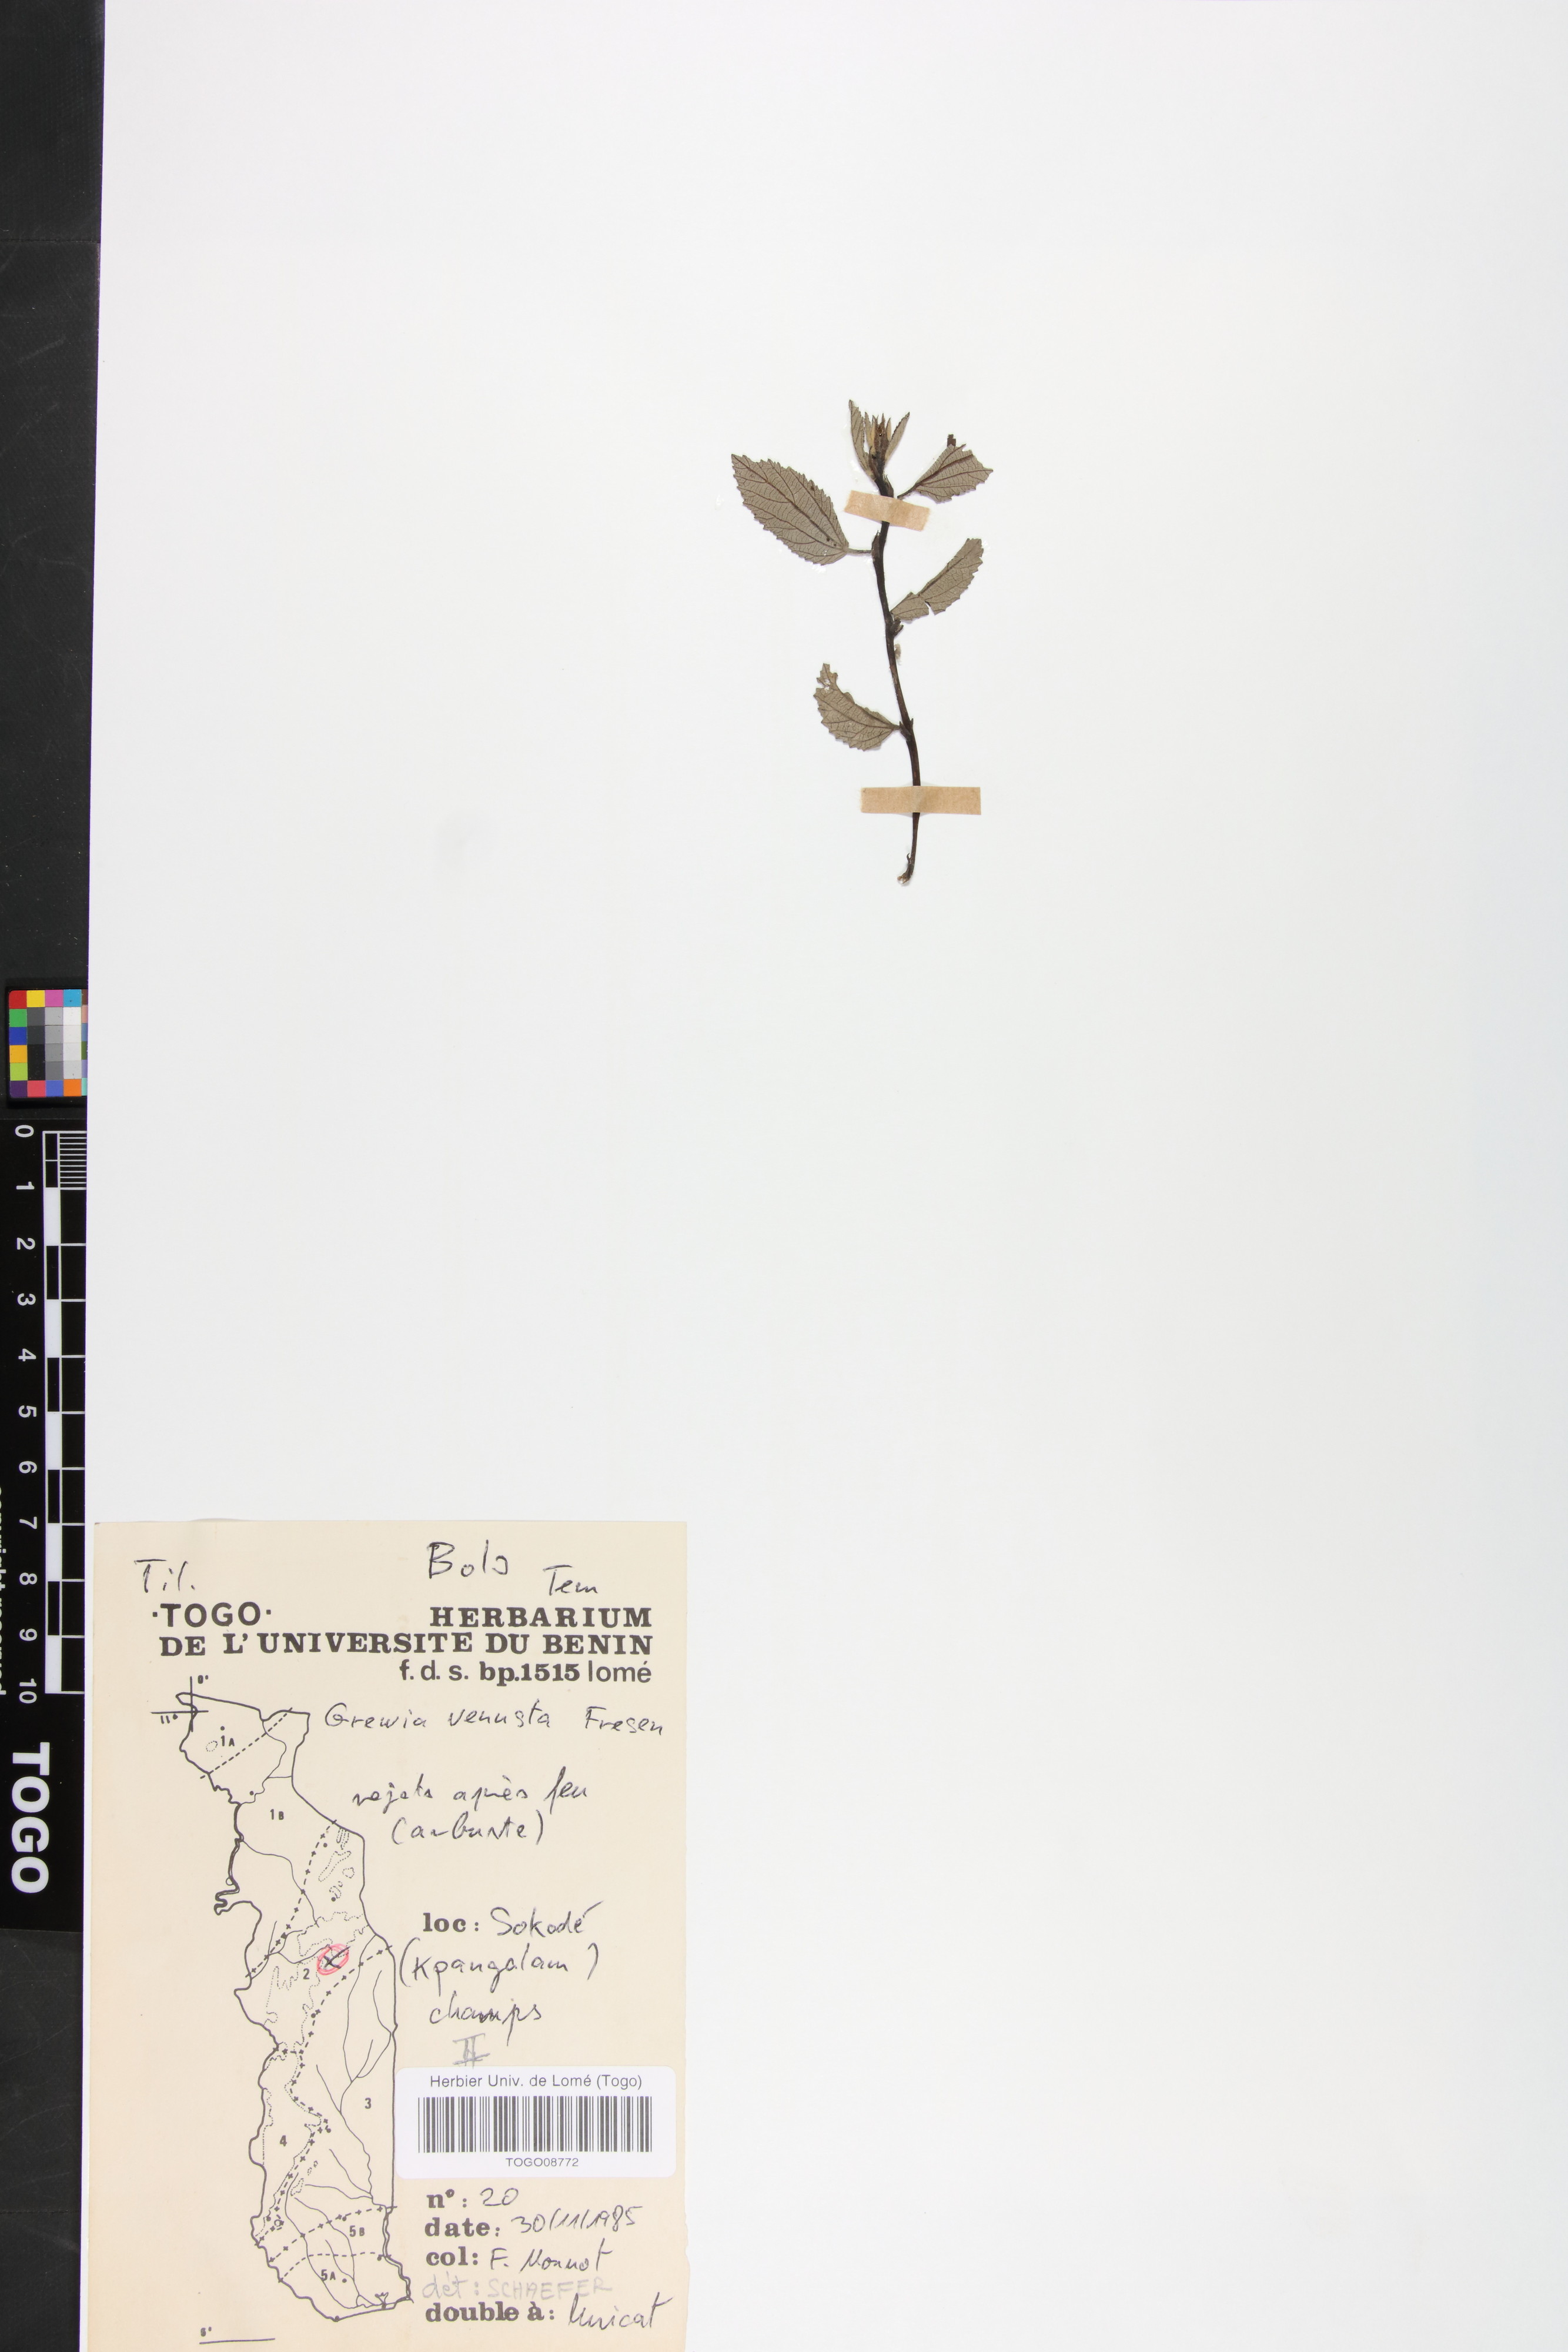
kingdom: Plantae
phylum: Tracheophyta
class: Magnoliopsida
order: Malvales
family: Malvaceae
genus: Grewia
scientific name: Grewia mollis
